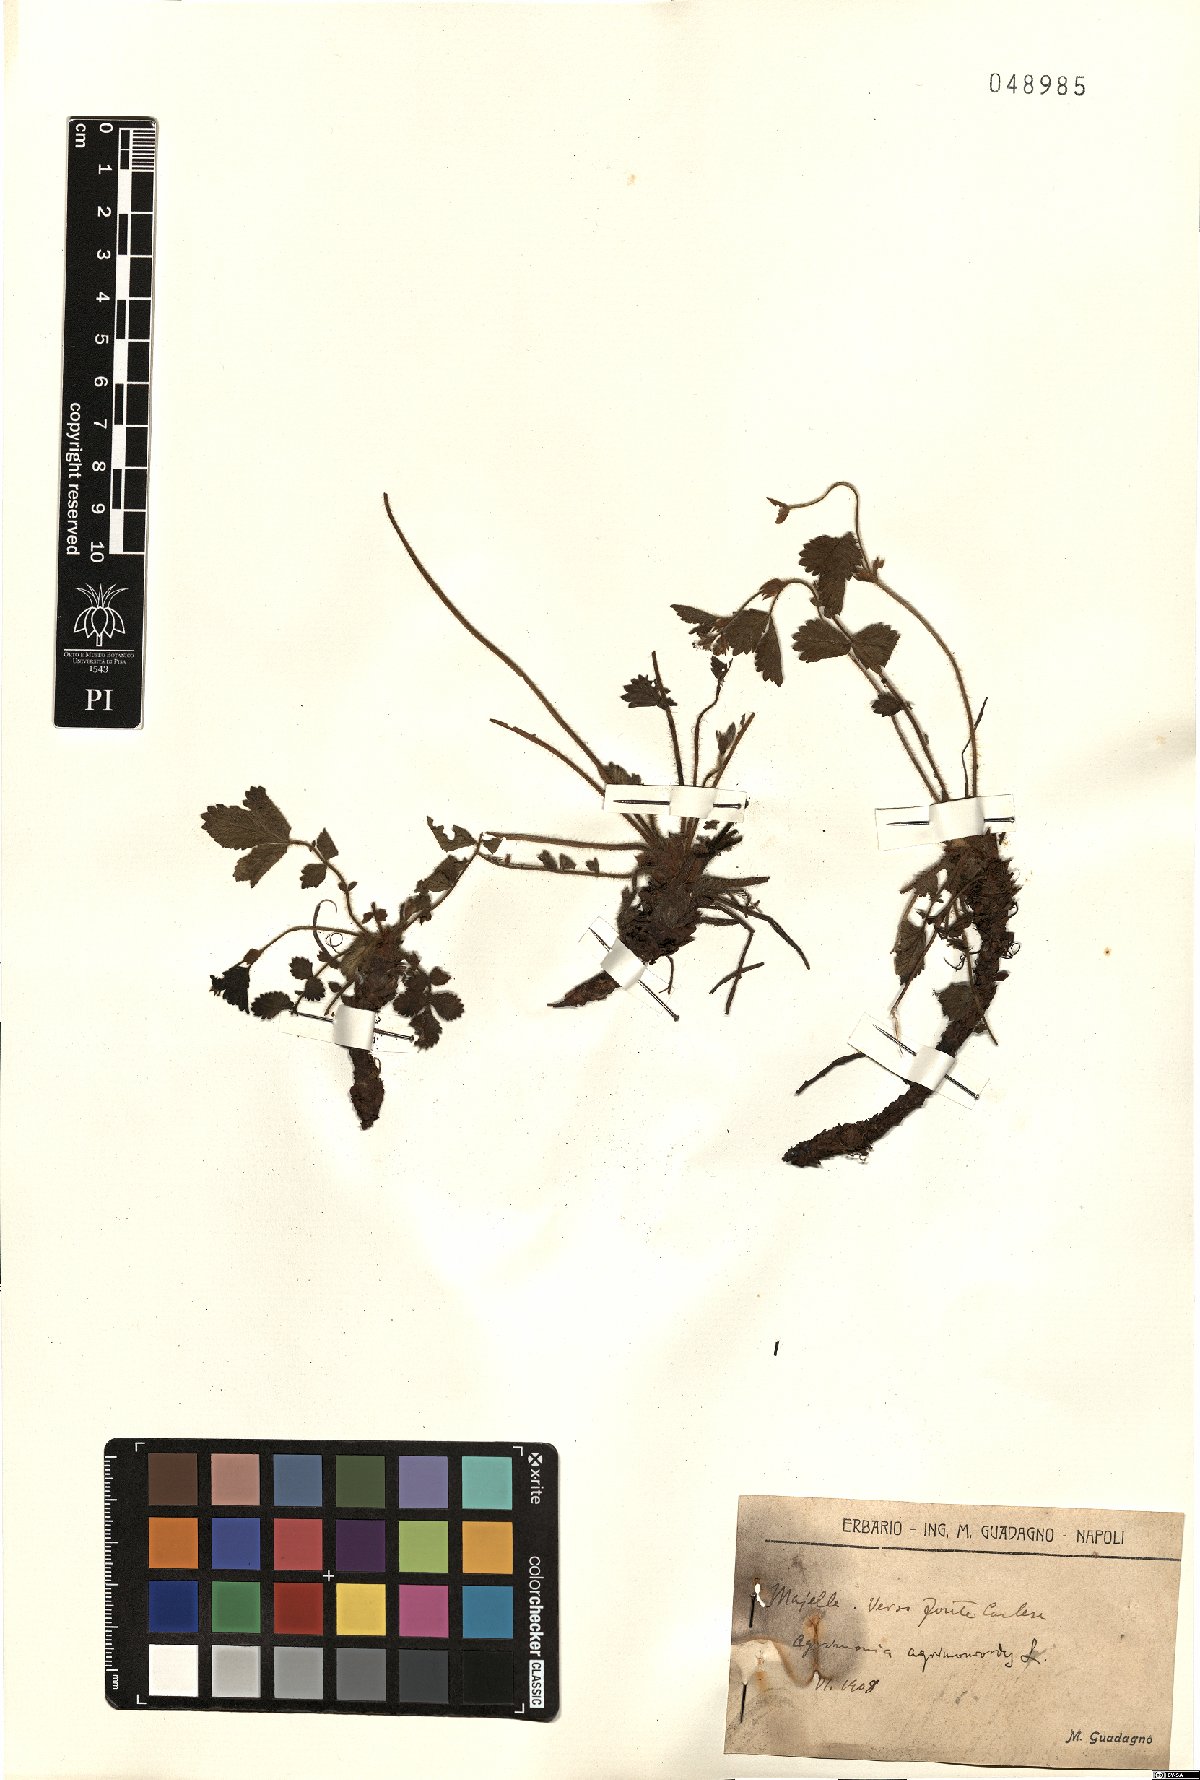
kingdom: Plantae
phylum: Tracheophyta
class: Magnoliopsida
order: Rosales
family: Rosaceae
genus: Aremonia
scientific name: Aremonia agrimonoides
